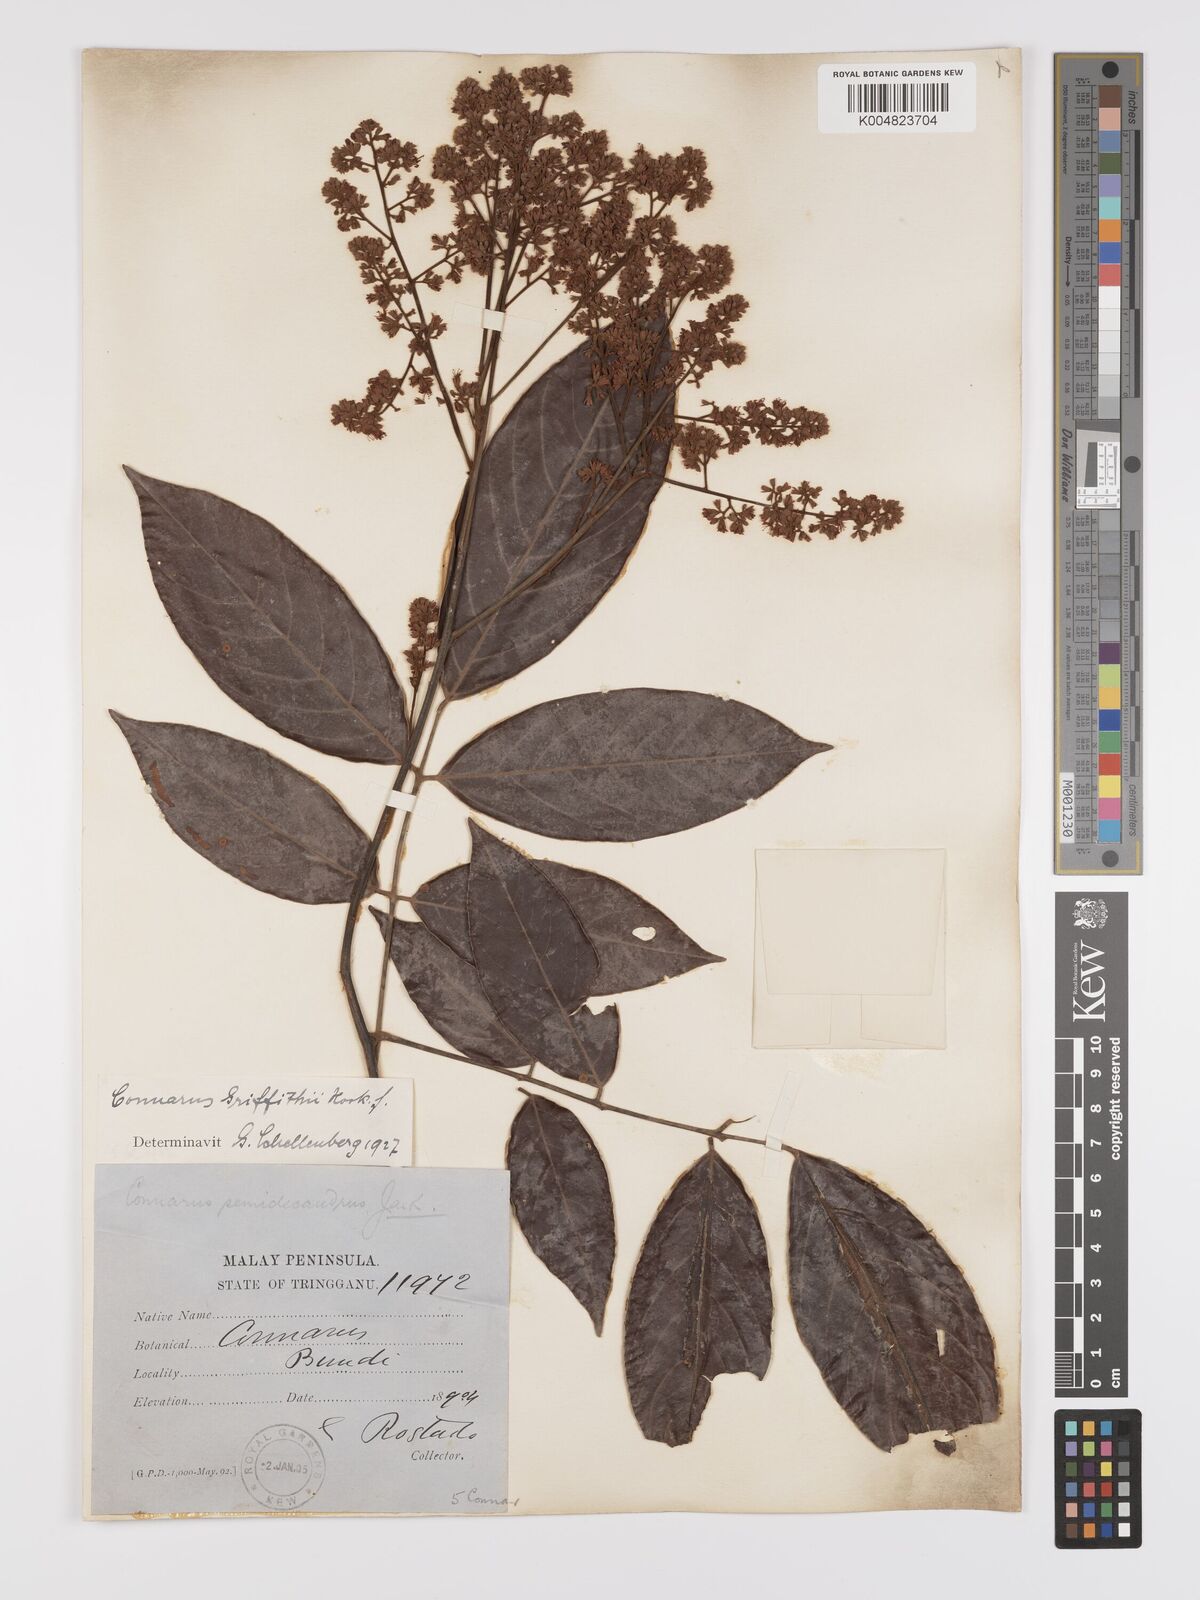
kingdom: Plantae
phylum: Tracheophyta
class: Magnoliopsida
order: Oxalidales
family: Connaraceae
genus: Connarus
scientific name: Connarus semidecandrus
